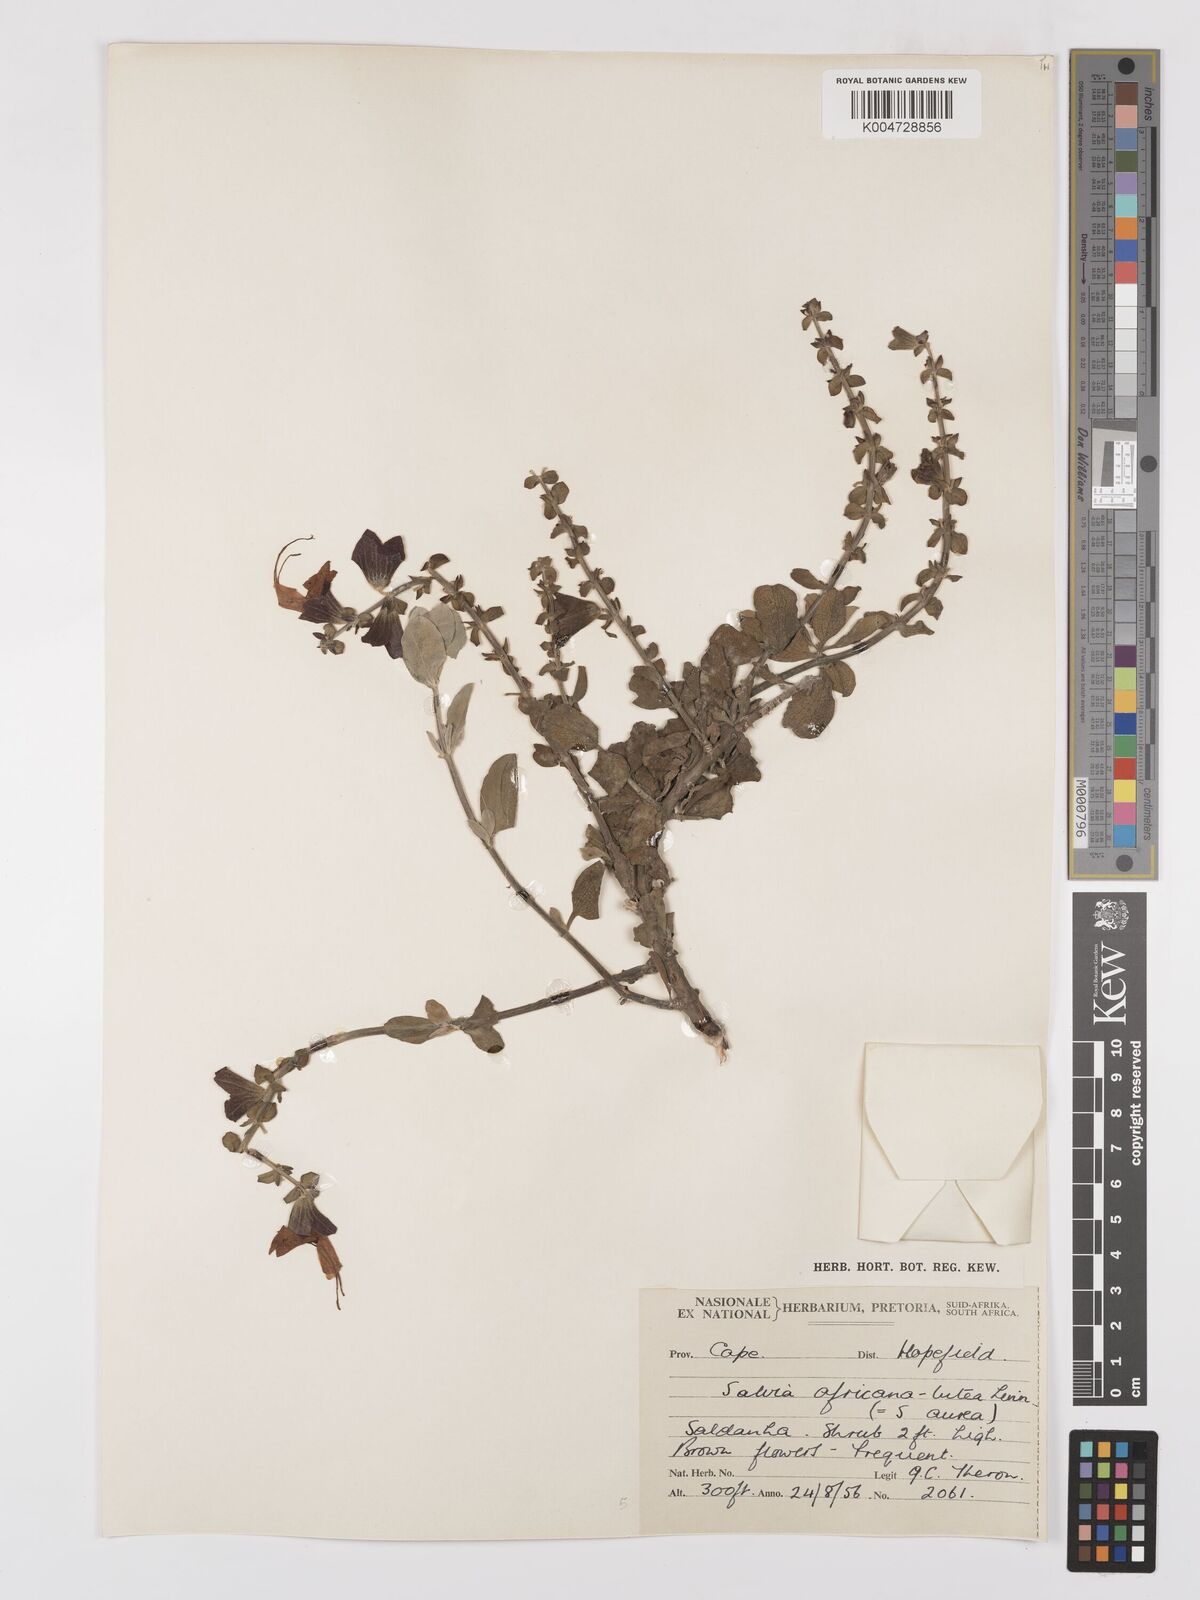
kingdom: Plantae
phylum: Tracheophyta
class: Magnoliopsida
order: Lamiales
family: Lamiaceae
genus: Salvia
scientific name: Salvia aurea
